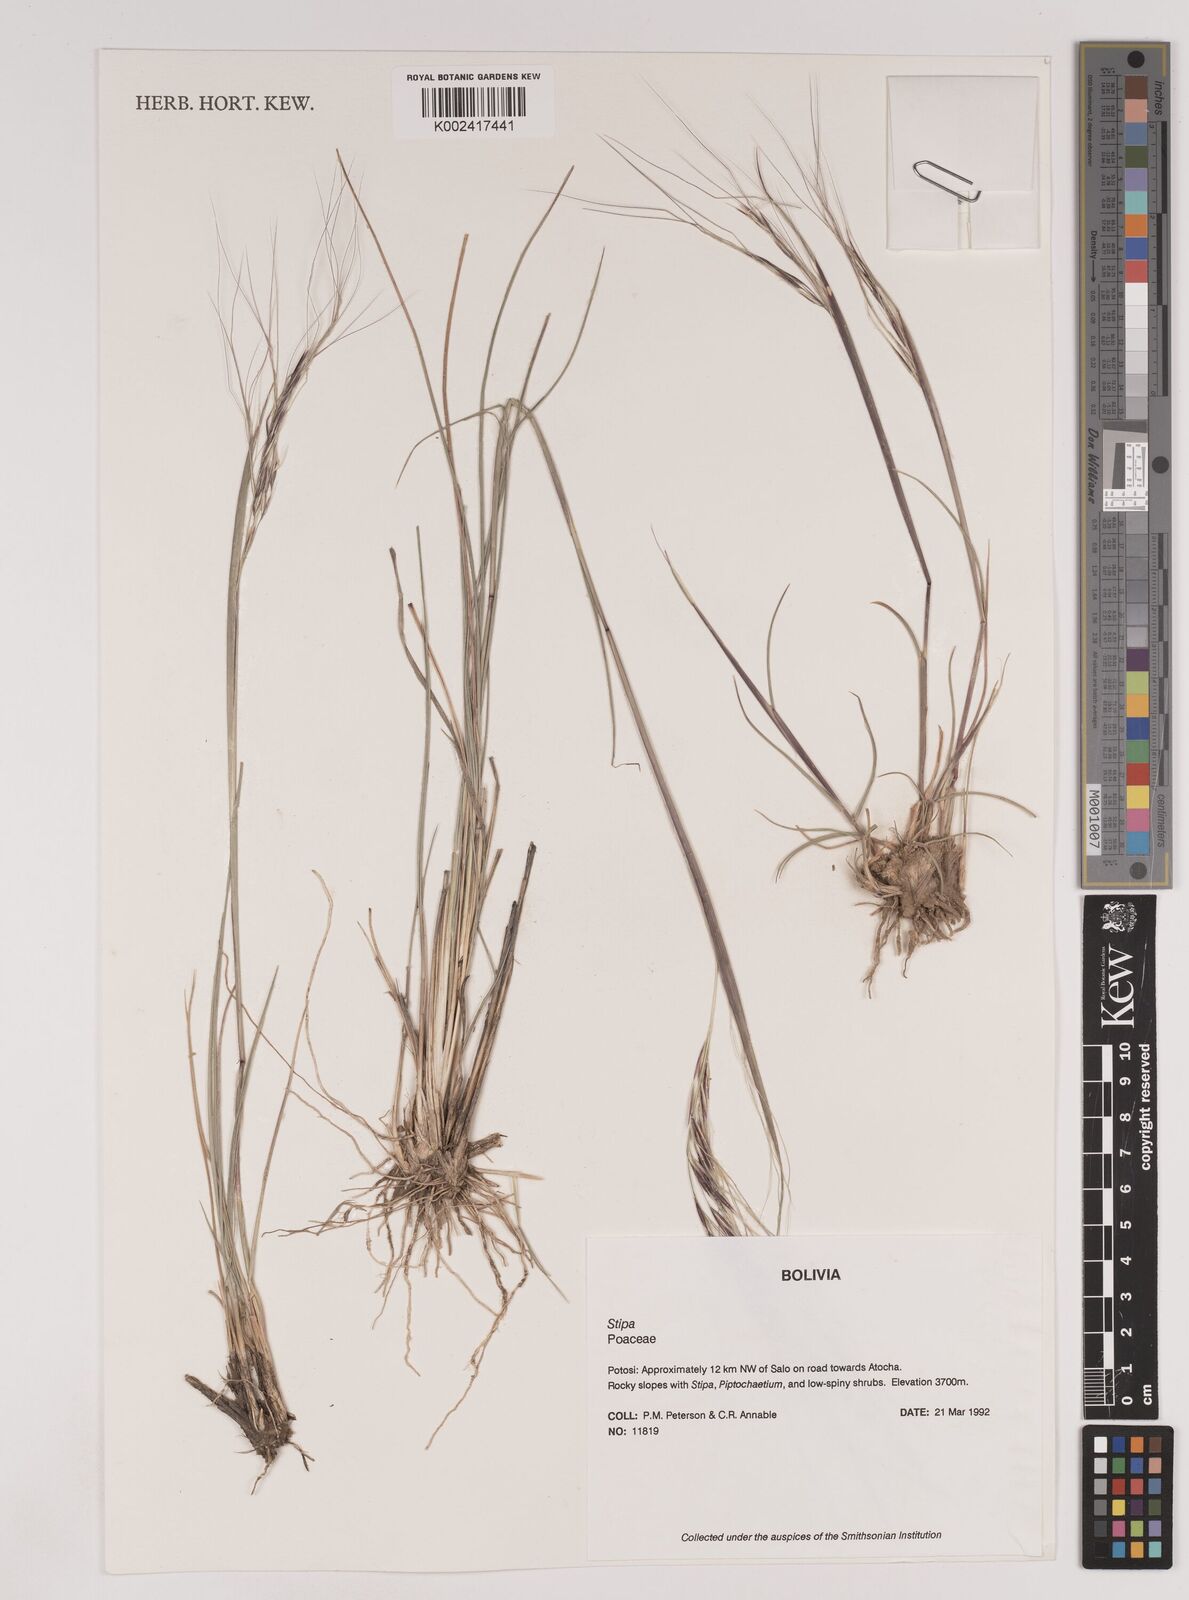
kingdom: Plantae
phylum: Tracheophyta
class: Liliopsida
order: Poales
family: Poaceae
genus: Nassella
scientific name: Nassella arcuata
